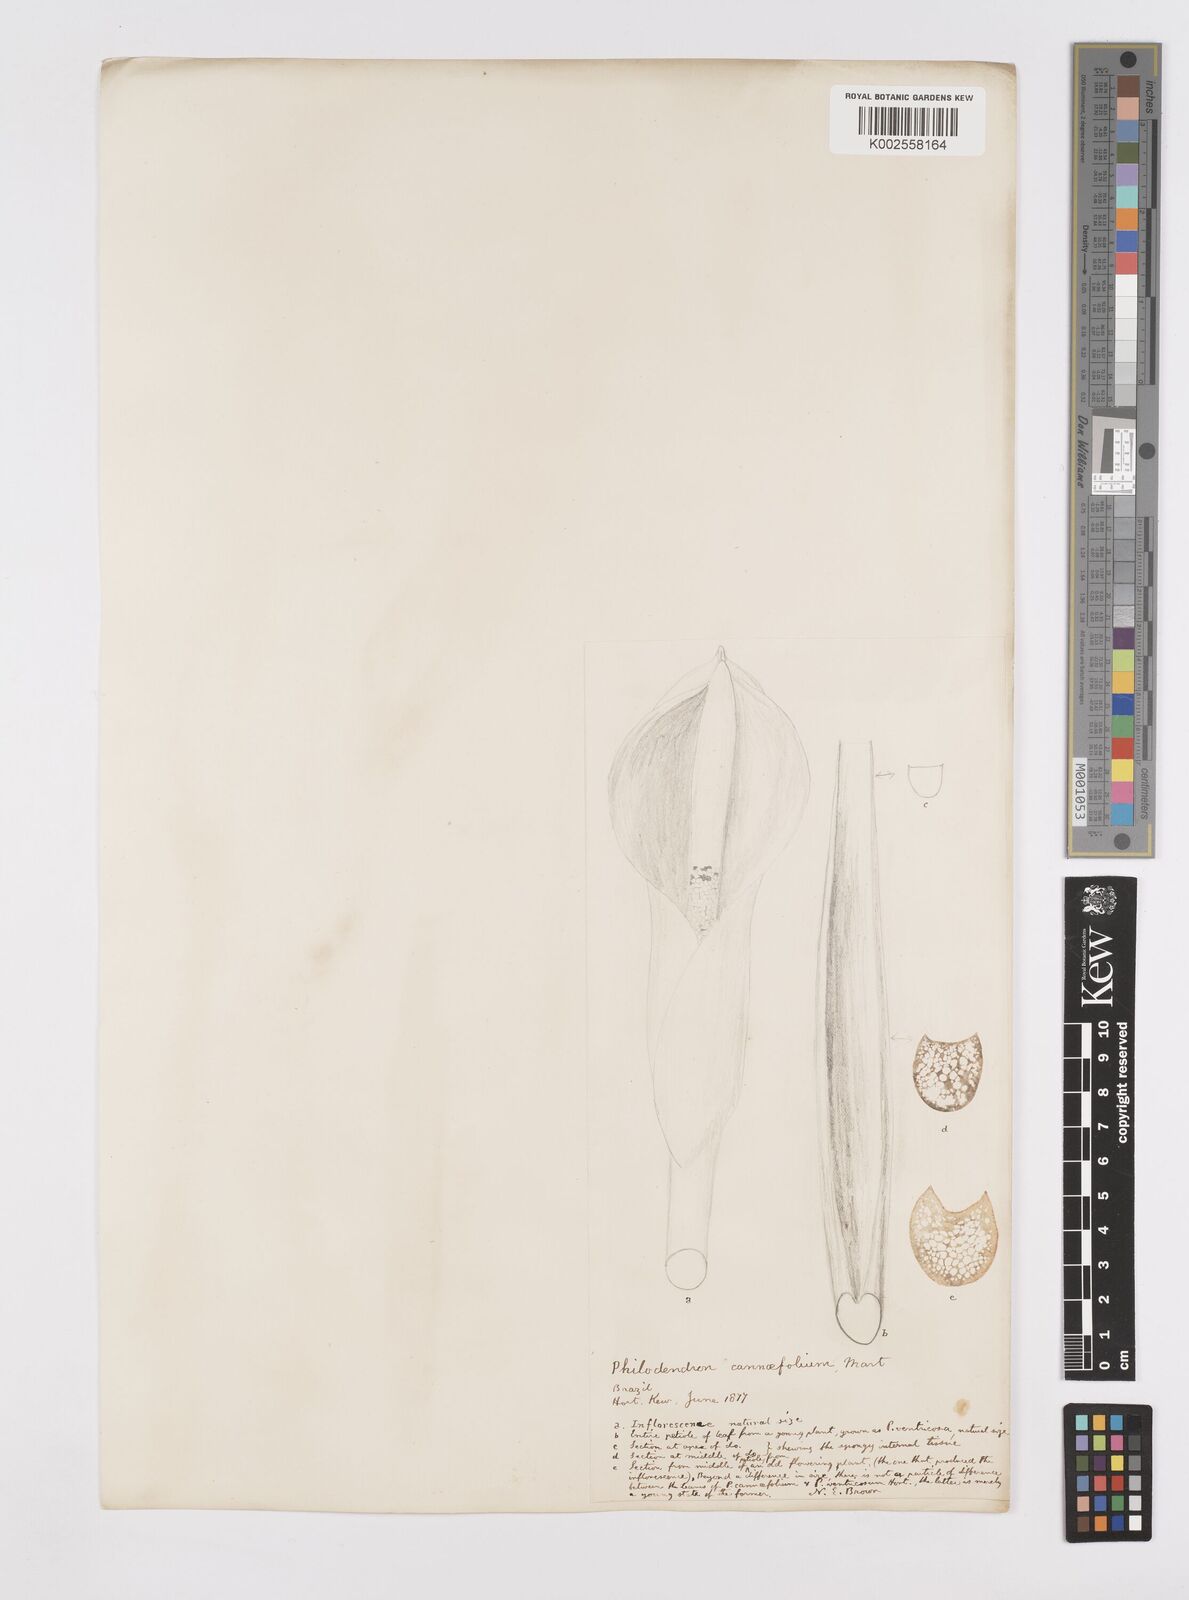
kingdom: Plantae
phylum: Tracheophyta
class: Liliopsida
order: Alismatales
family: Araceae
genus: Philodendron
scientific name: Philodendron martianum
